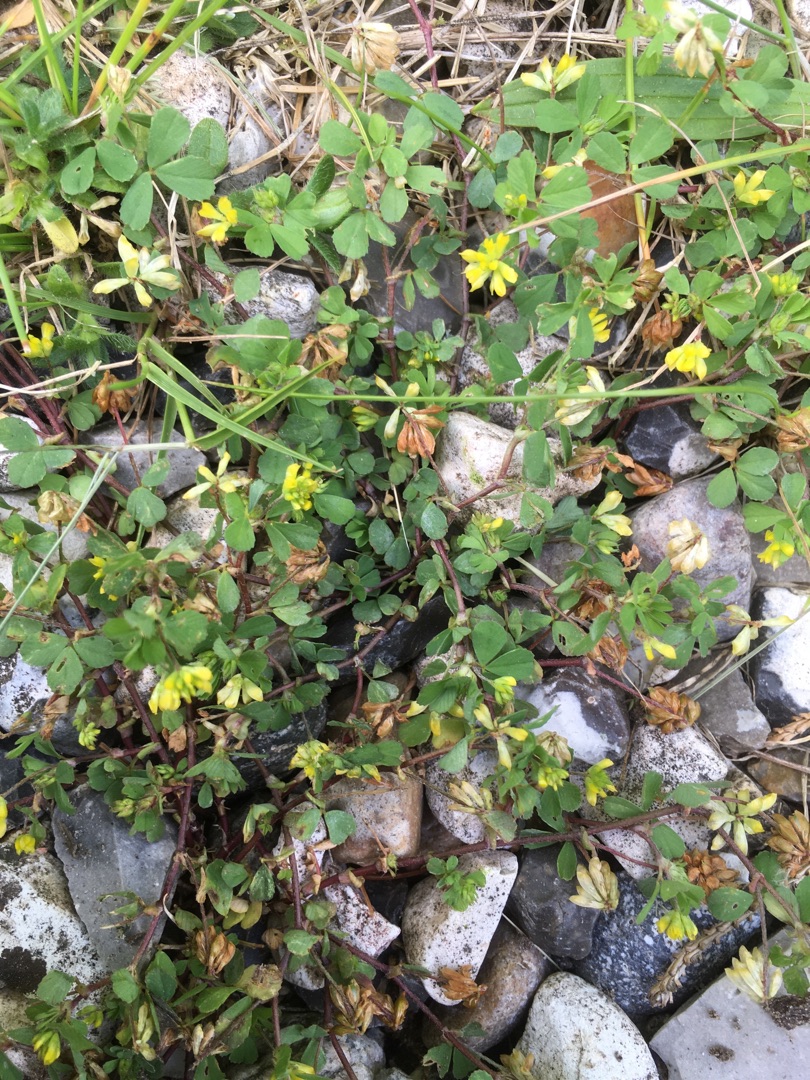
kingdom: Plantae
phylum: Tracheophyta
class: Magnoliopsida
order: Fabales
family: Fabaceae
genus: Trifolium
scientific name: Trifolium dubium
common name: Fin kløver
